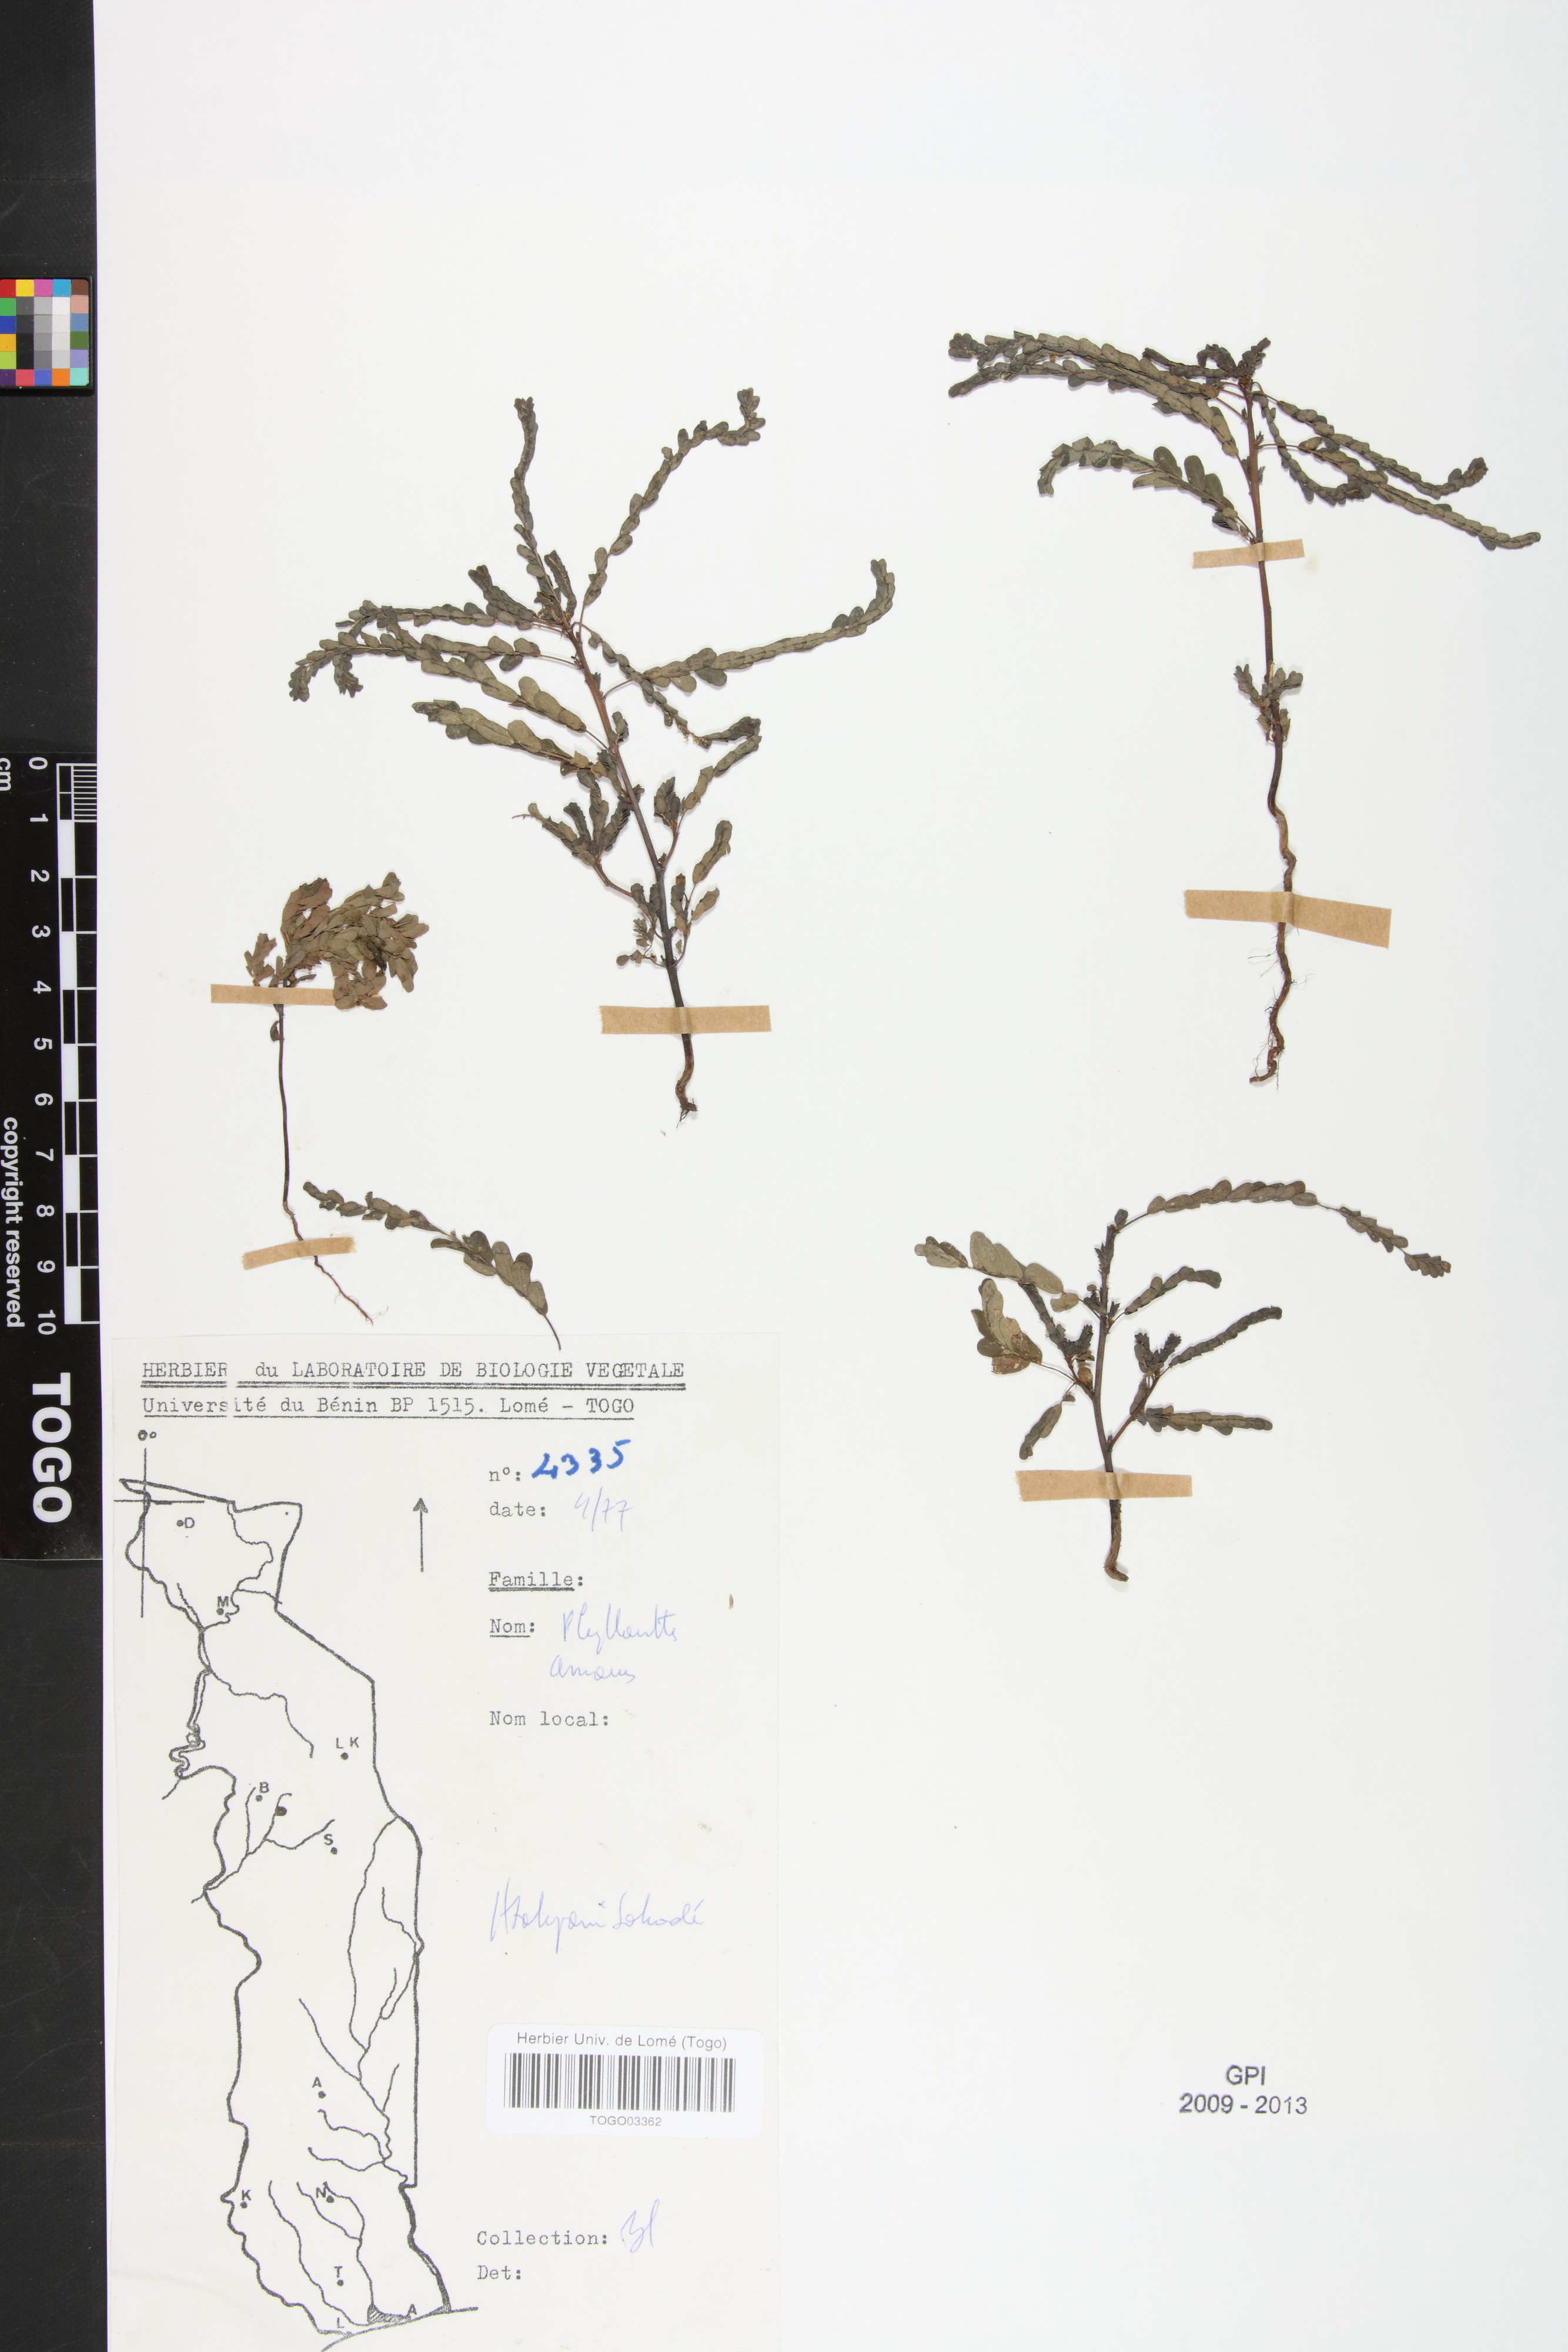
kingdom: Plantae
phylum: Tracheophyta
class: Magnoliopsida
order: Malpighiales
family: Phyllanthaceae
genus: Phyllanthus
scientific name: Phyllanthus amarus
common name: Carry me seed
